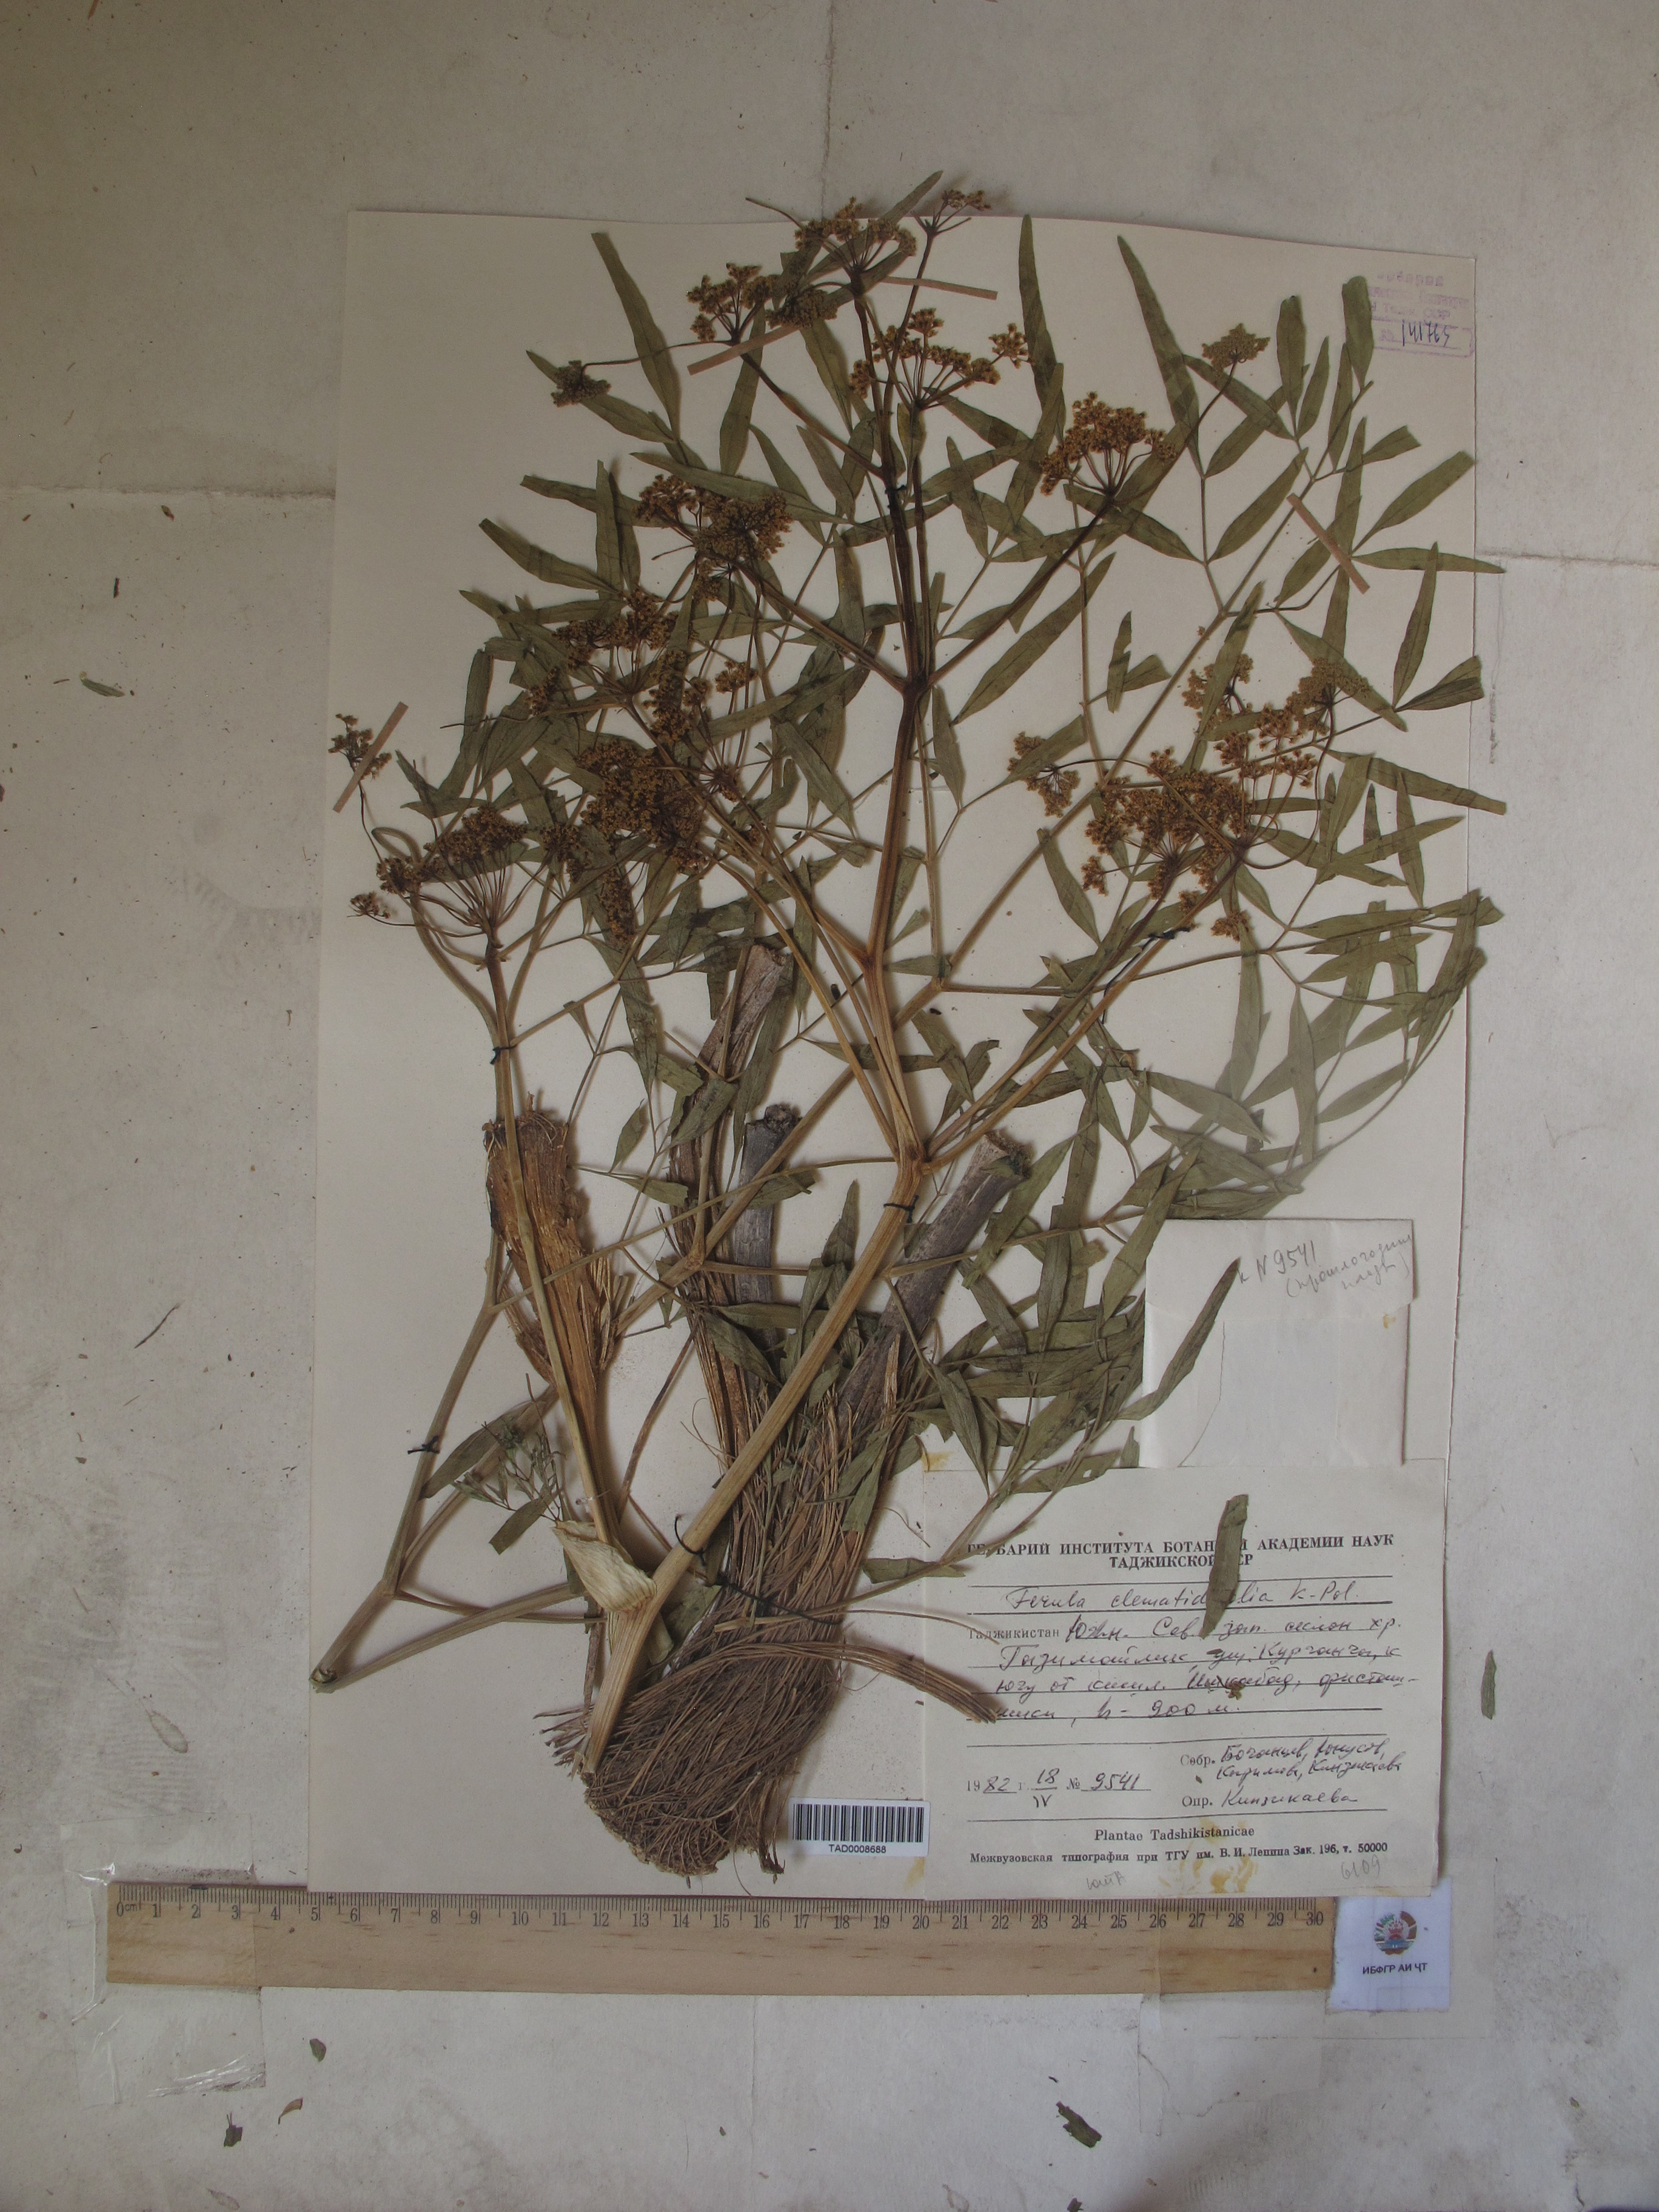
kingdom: Plantae
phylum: Tracheophyta
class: Magnoliopsida
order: Apiales
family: Apiaceae
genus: Ferula
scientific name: Ferula clematidifolia
